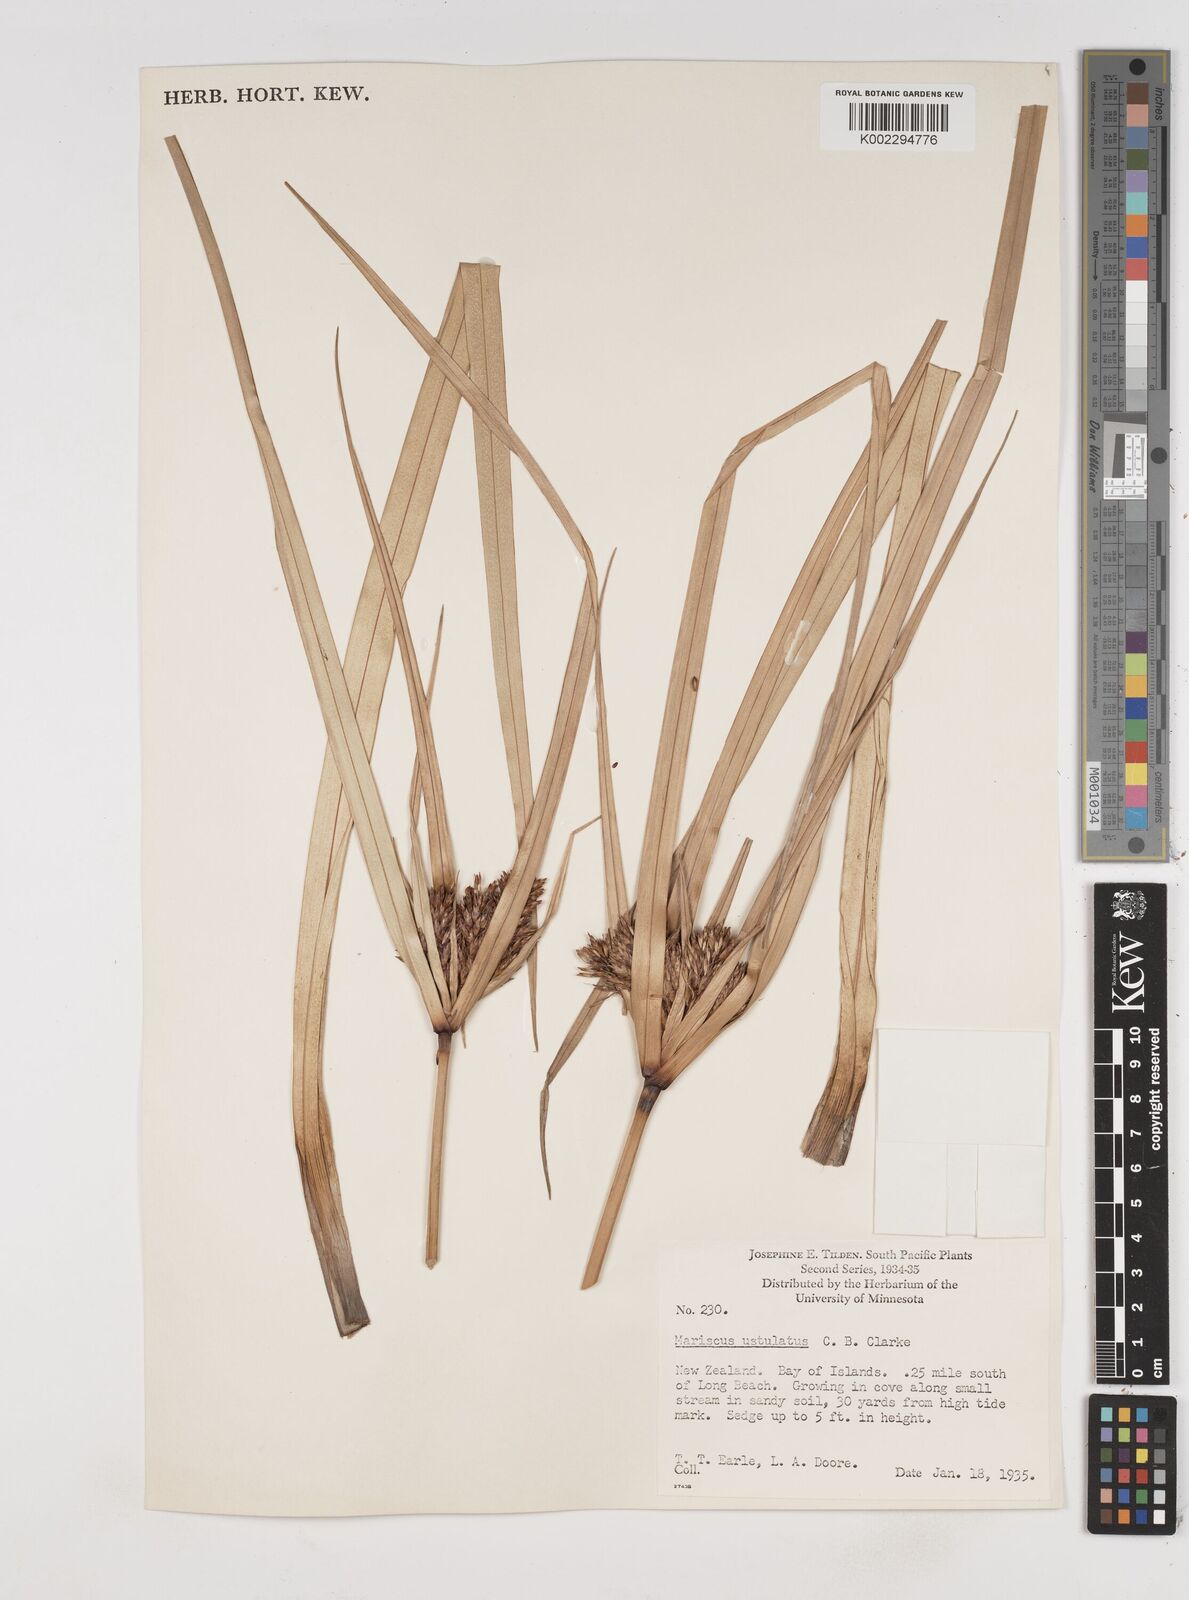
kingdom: Plantae
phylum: Tracheophyta
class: Liliopsida
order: Poales
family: Cyperaceae
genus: Cyperus
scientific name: Cyperus ustulatus
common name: Giant umbrella-sedge
